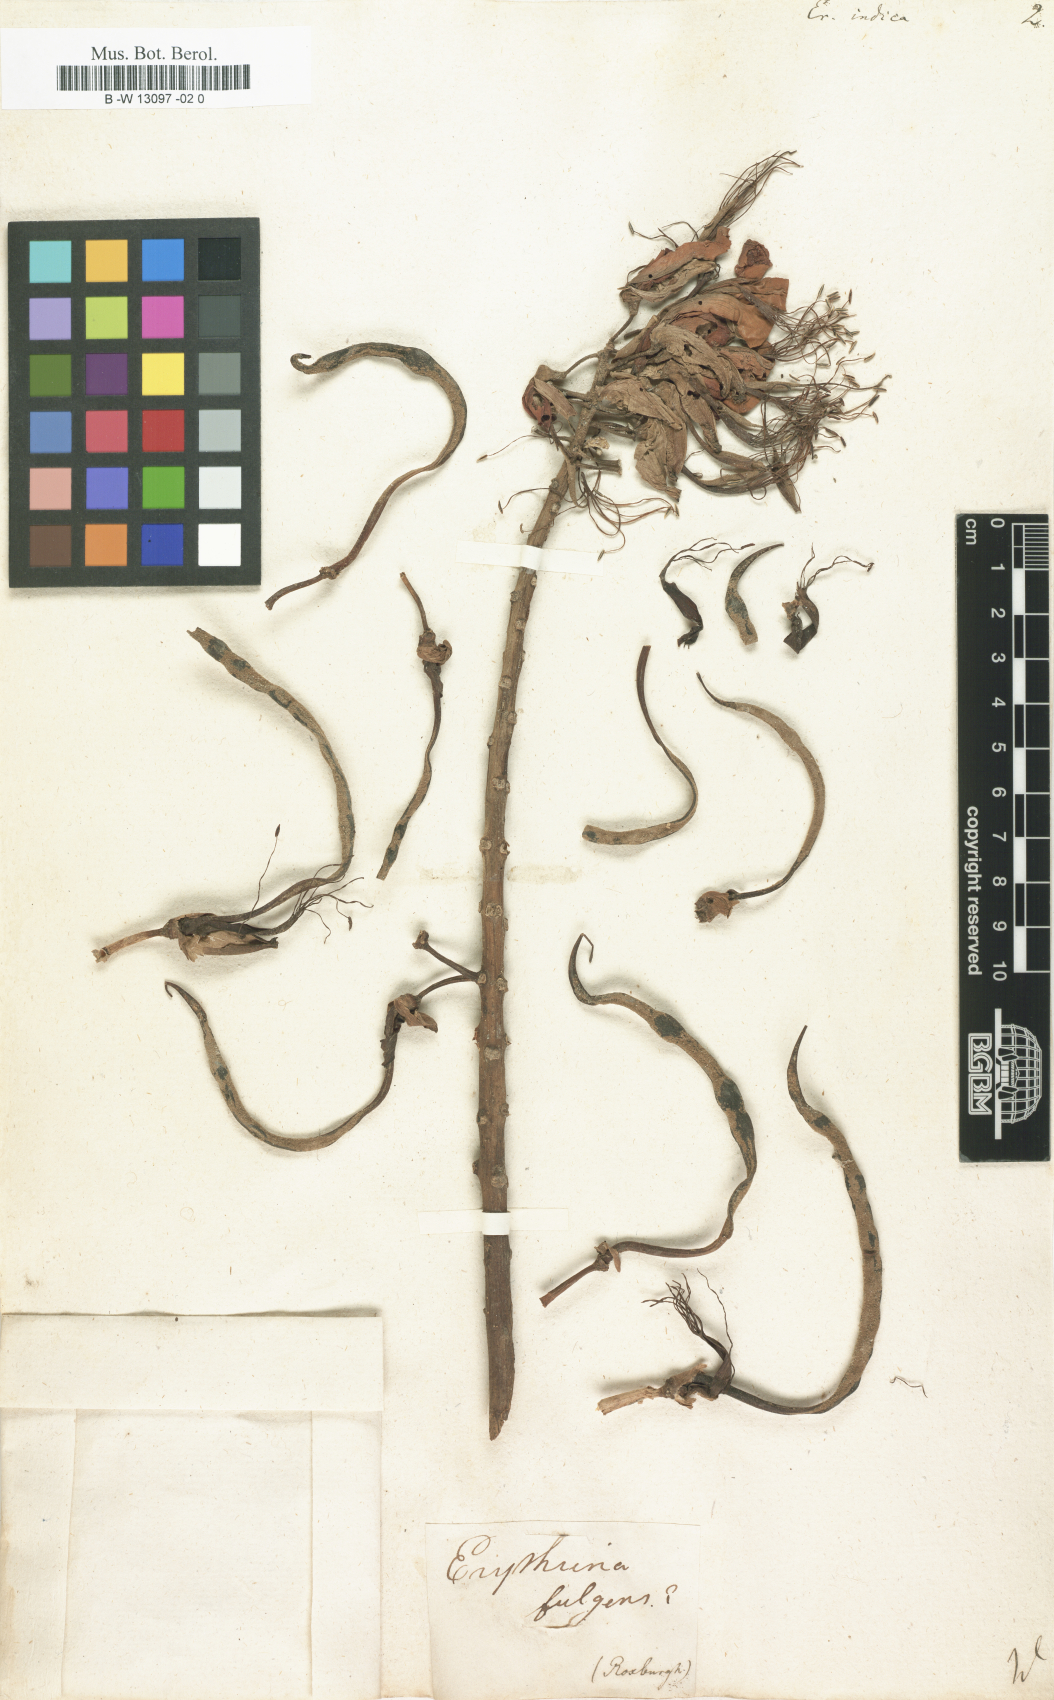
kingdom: Plantae
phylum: Tracheophyta
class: Magnoliopsida
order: Fabales
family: Fabaceae
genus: Erythrina
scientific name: Erythrina indica
